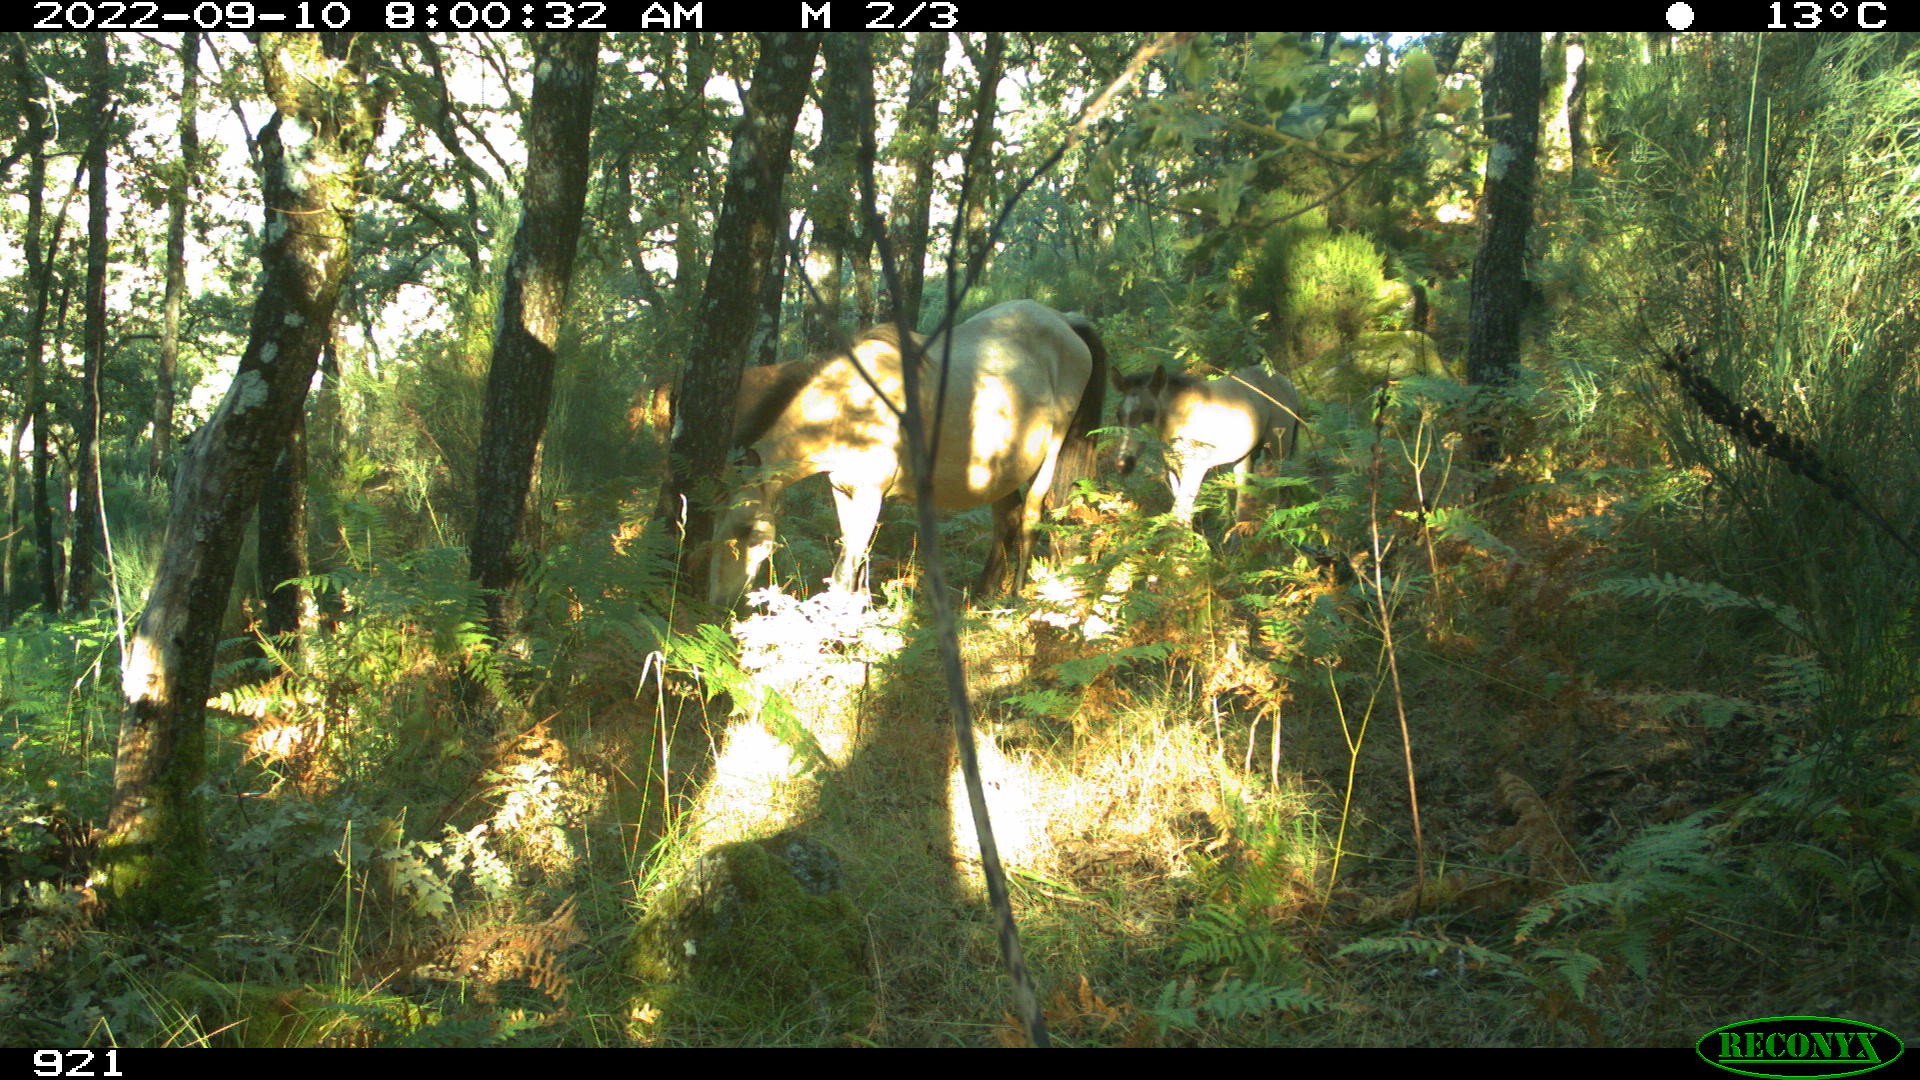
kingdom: Animalia
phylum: Chordata
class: Mammalia
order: Perissodactyla
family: Equidae
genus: Equus
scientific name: Equus caballus
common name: Horse
